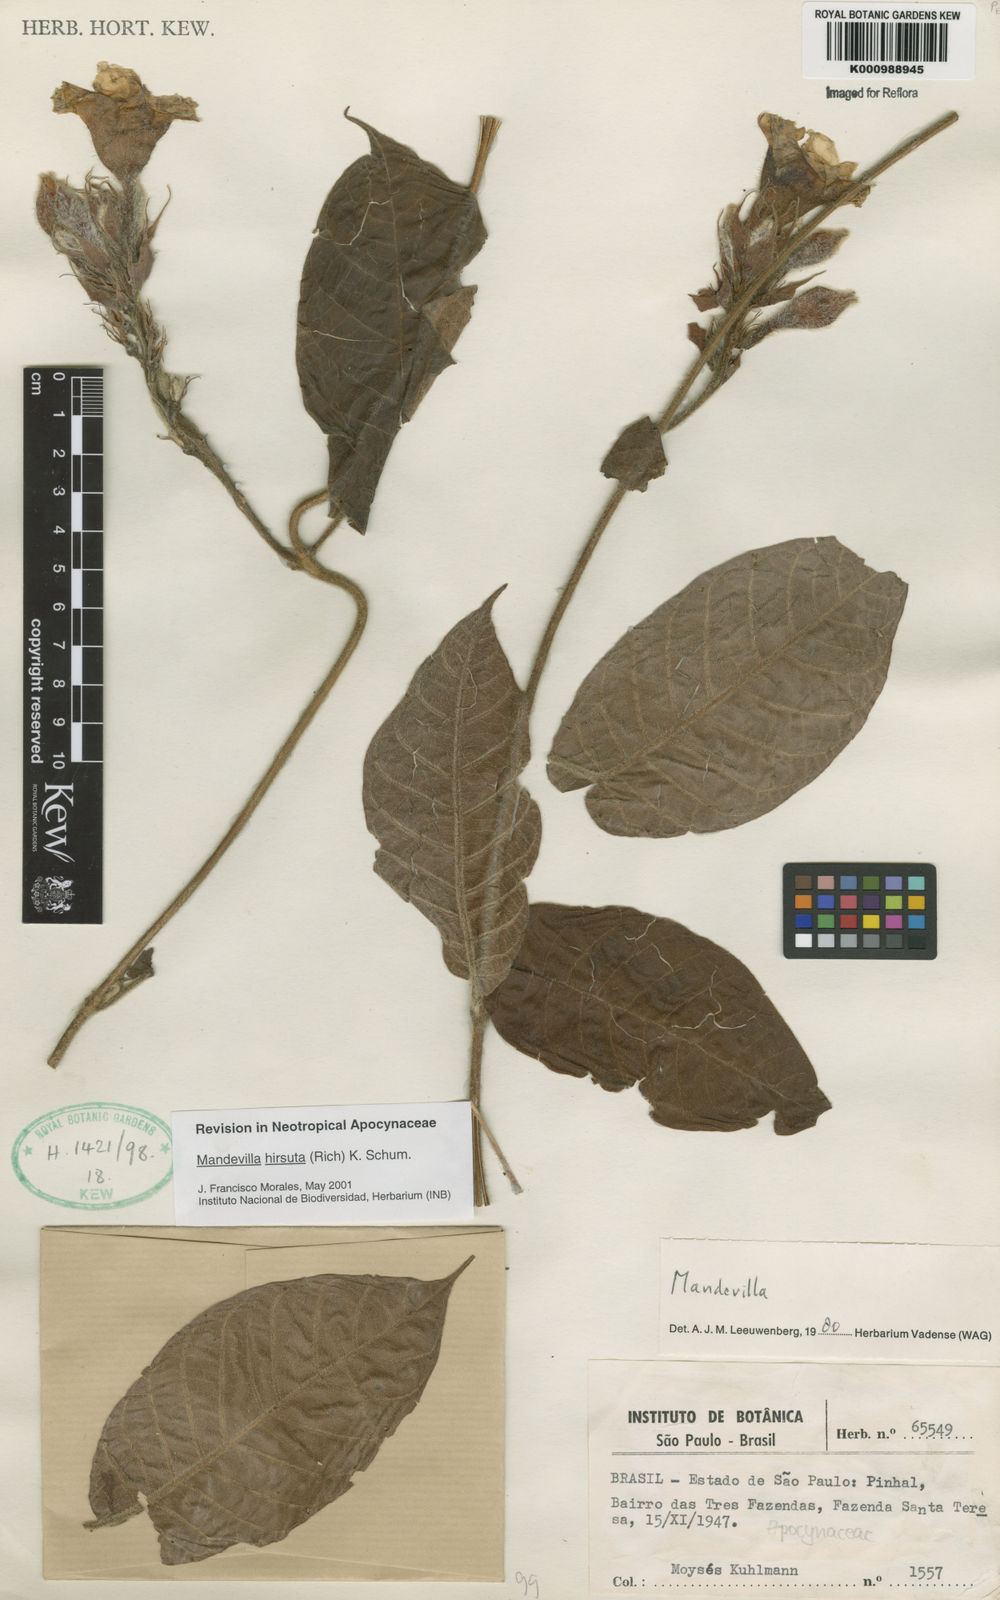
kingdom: Plantae
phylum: Tracheophyta
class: Magnoliopsida
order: Gentianales
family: Apocynaceae
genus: Mandevilla
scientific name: Mandevilla hirsuta
